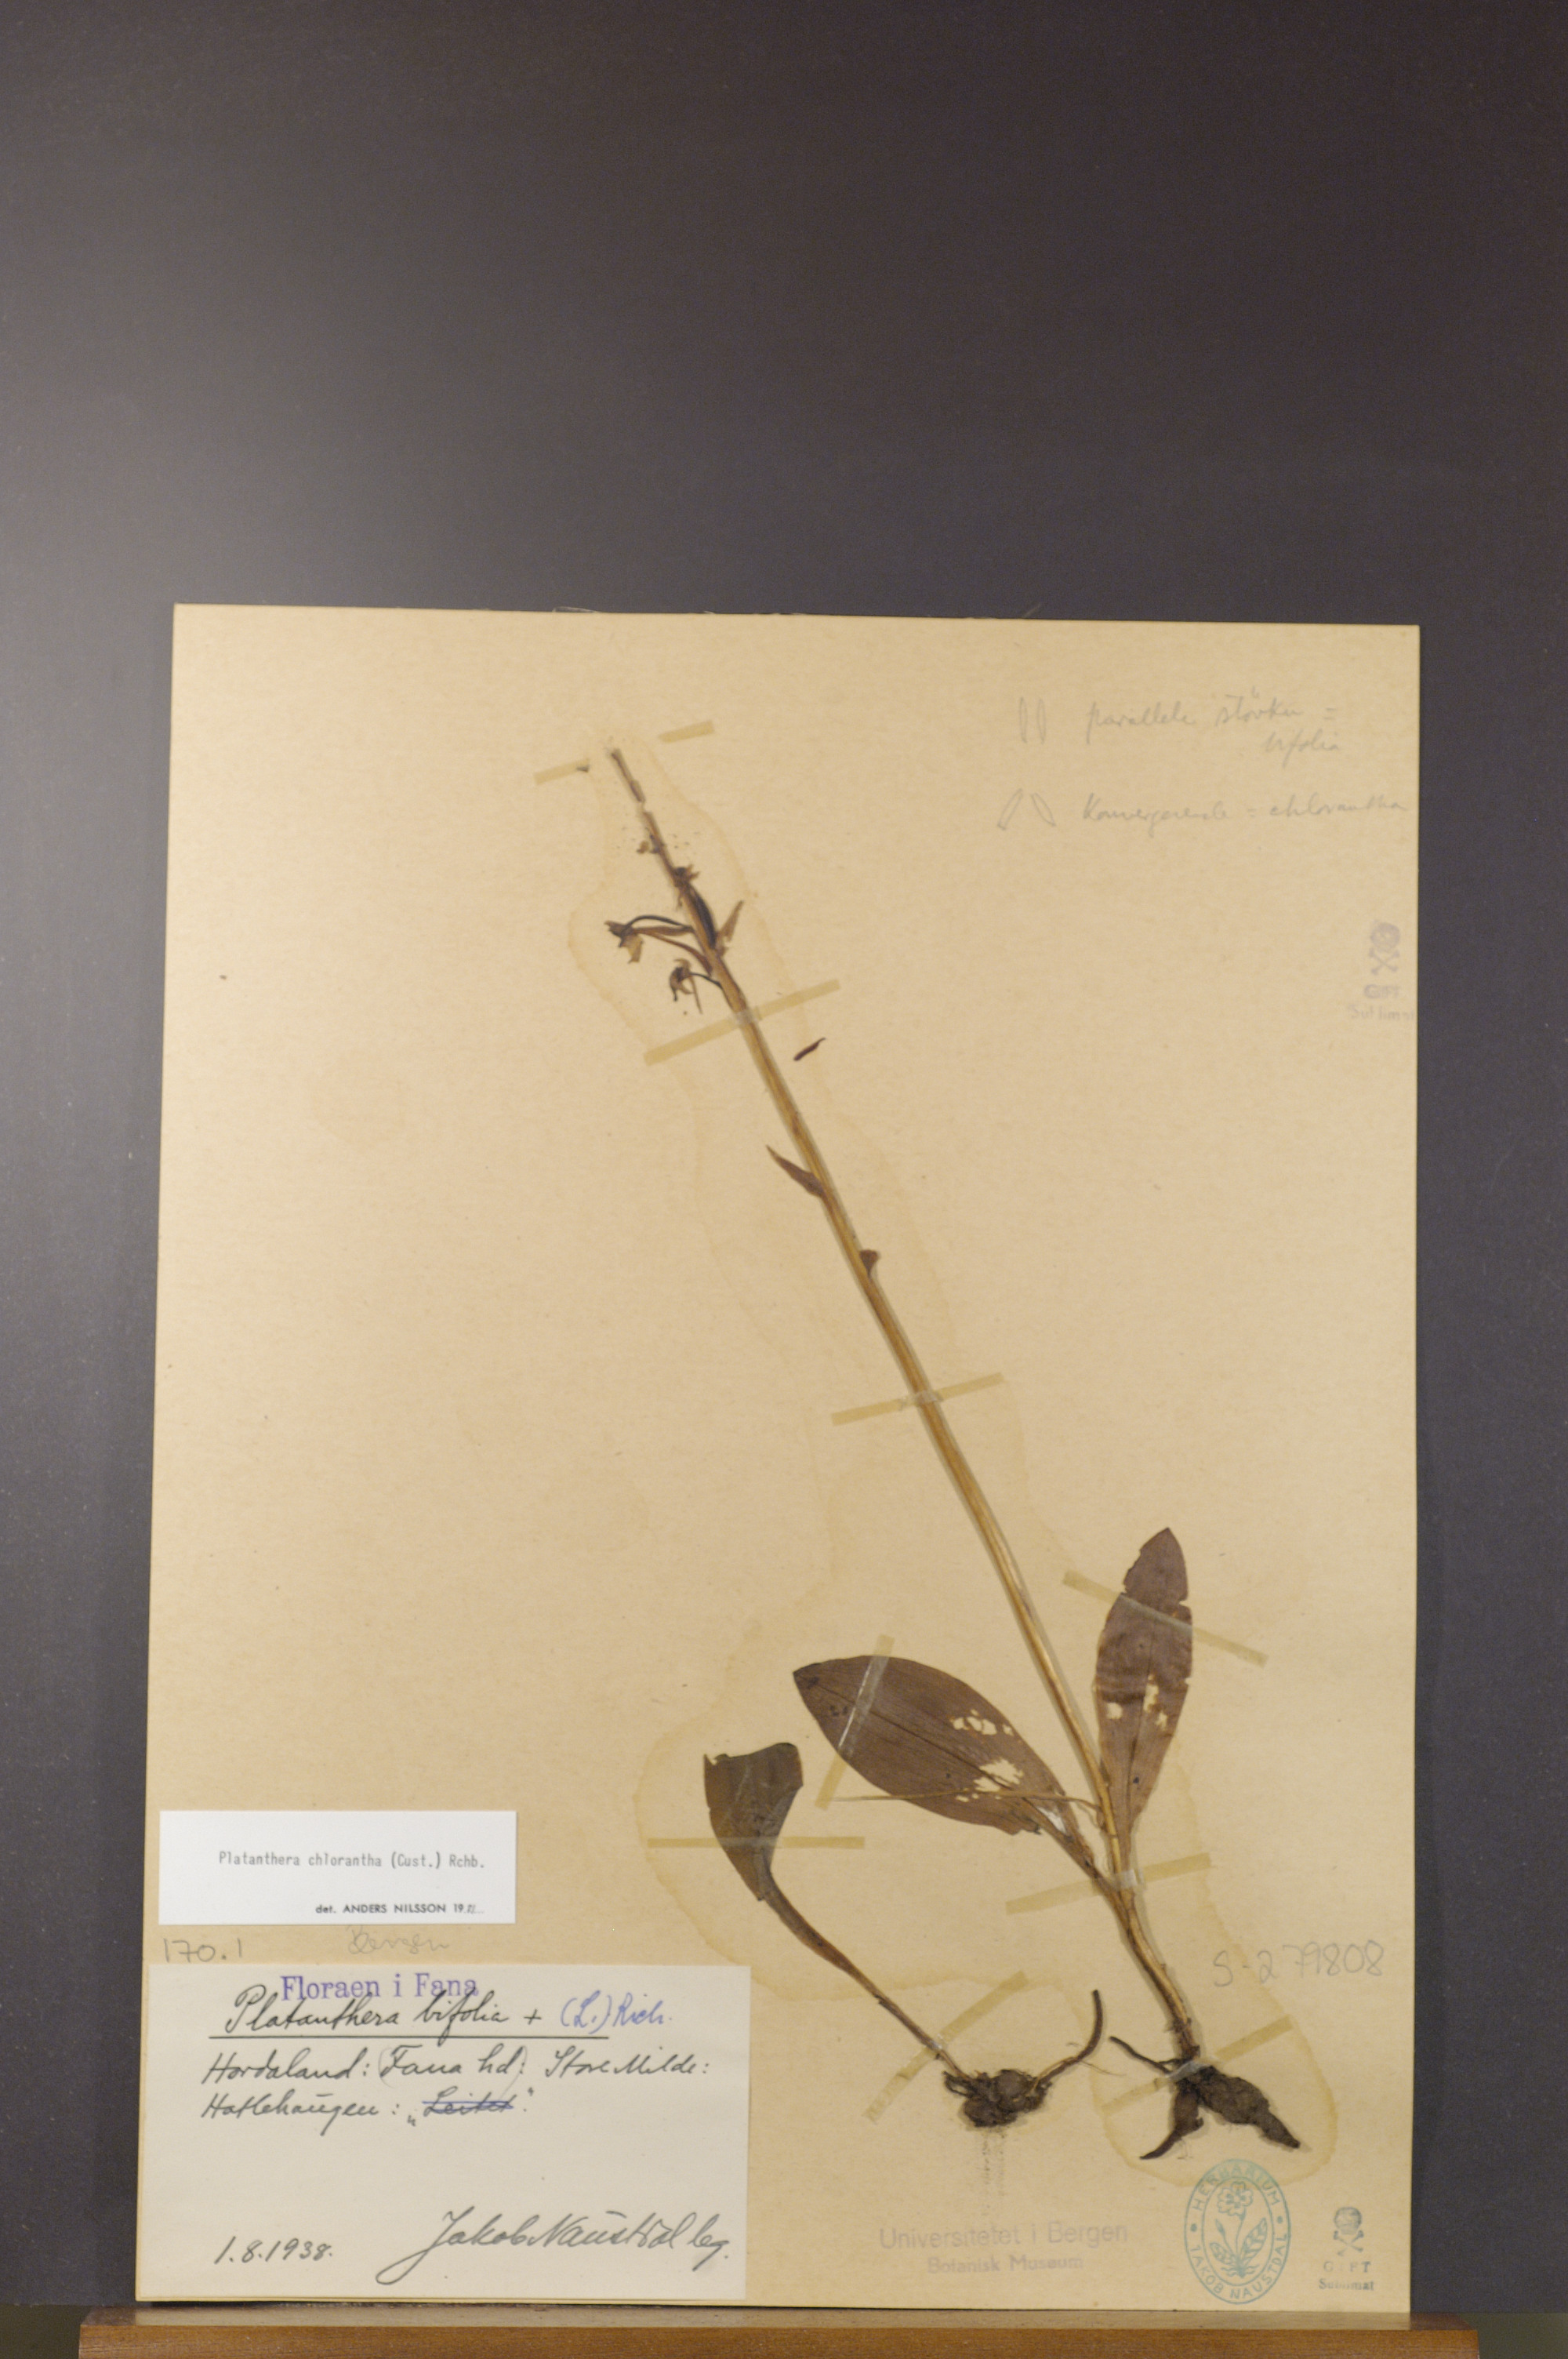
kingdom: Plantae
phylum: Tracheophyta
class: Liliopsida
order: Asparagales
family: Orchidaceae
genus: Platanthera
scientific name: Platanthera chlorantha
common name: Greater butterfly-orchid
